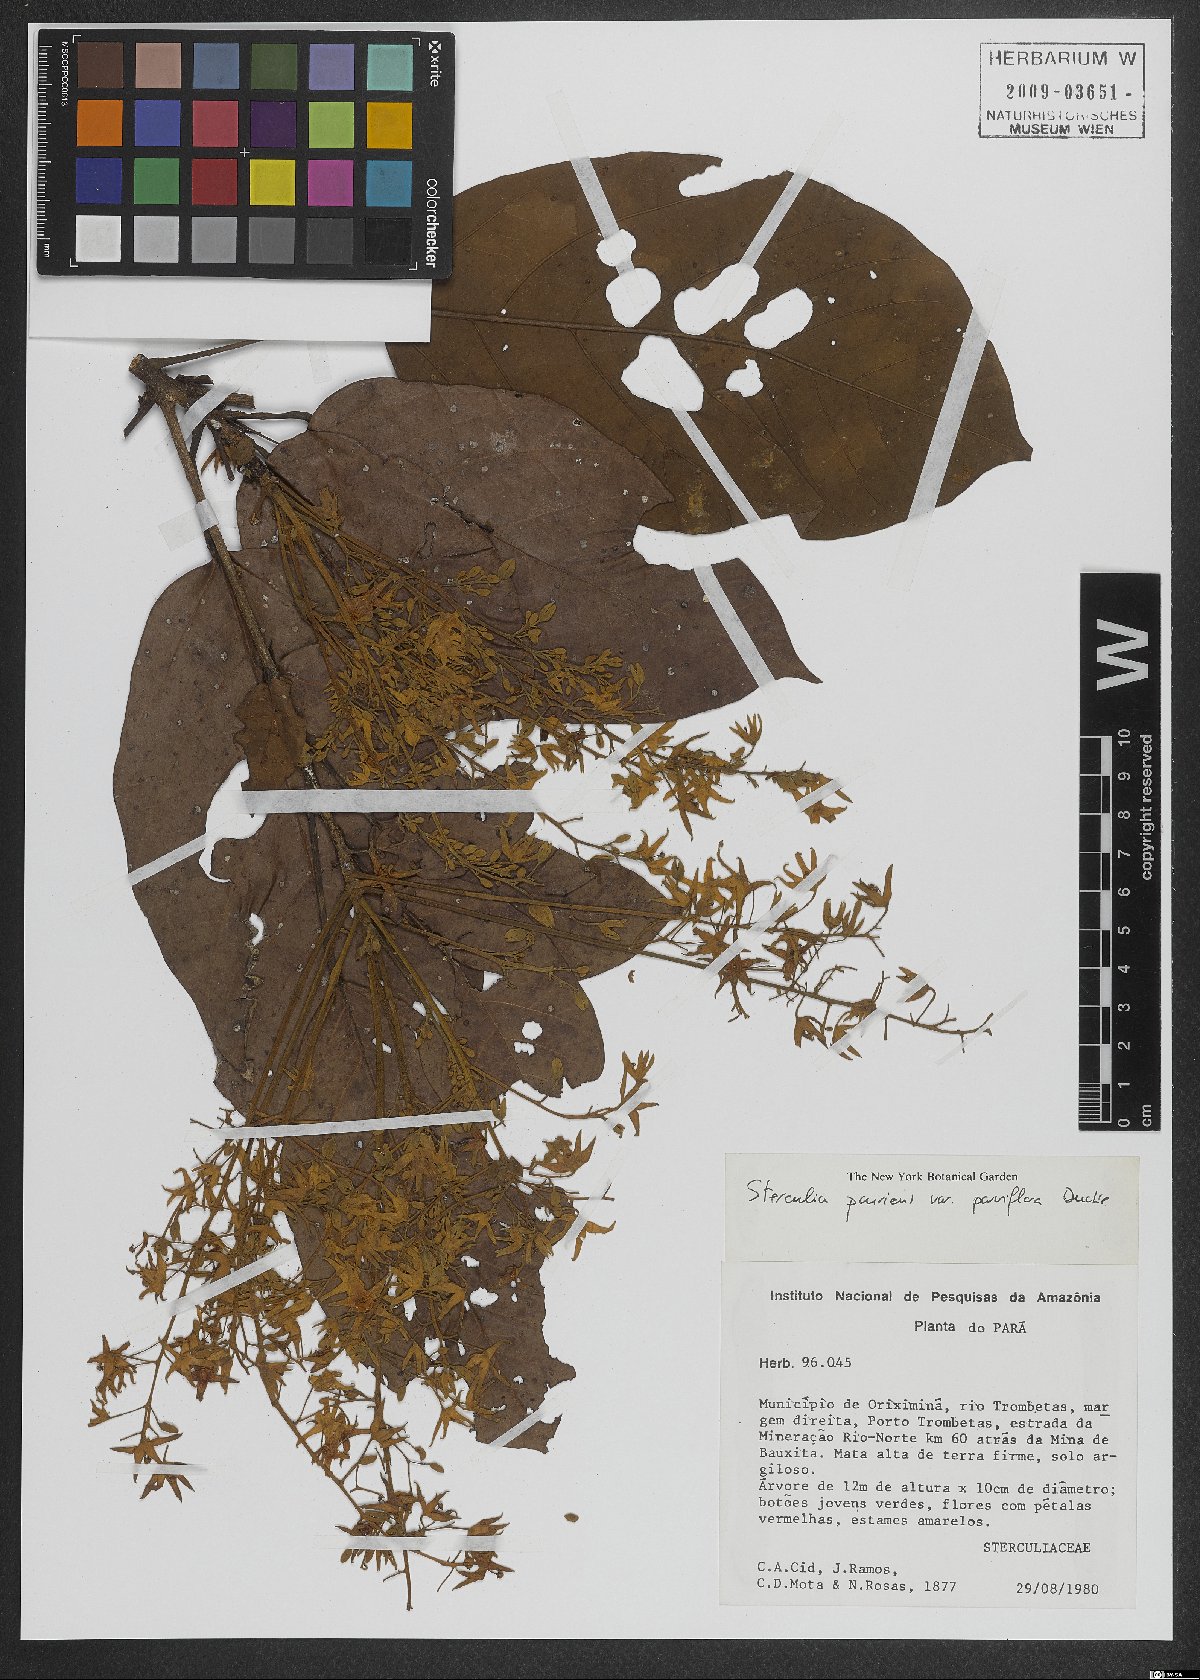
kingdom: Plantae
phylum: Tracheophyta
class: Magnoliopsida
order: Malvales
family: Malvaceae
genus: Sterculia
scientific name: Sterculia pruriens
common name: Grand mahot
